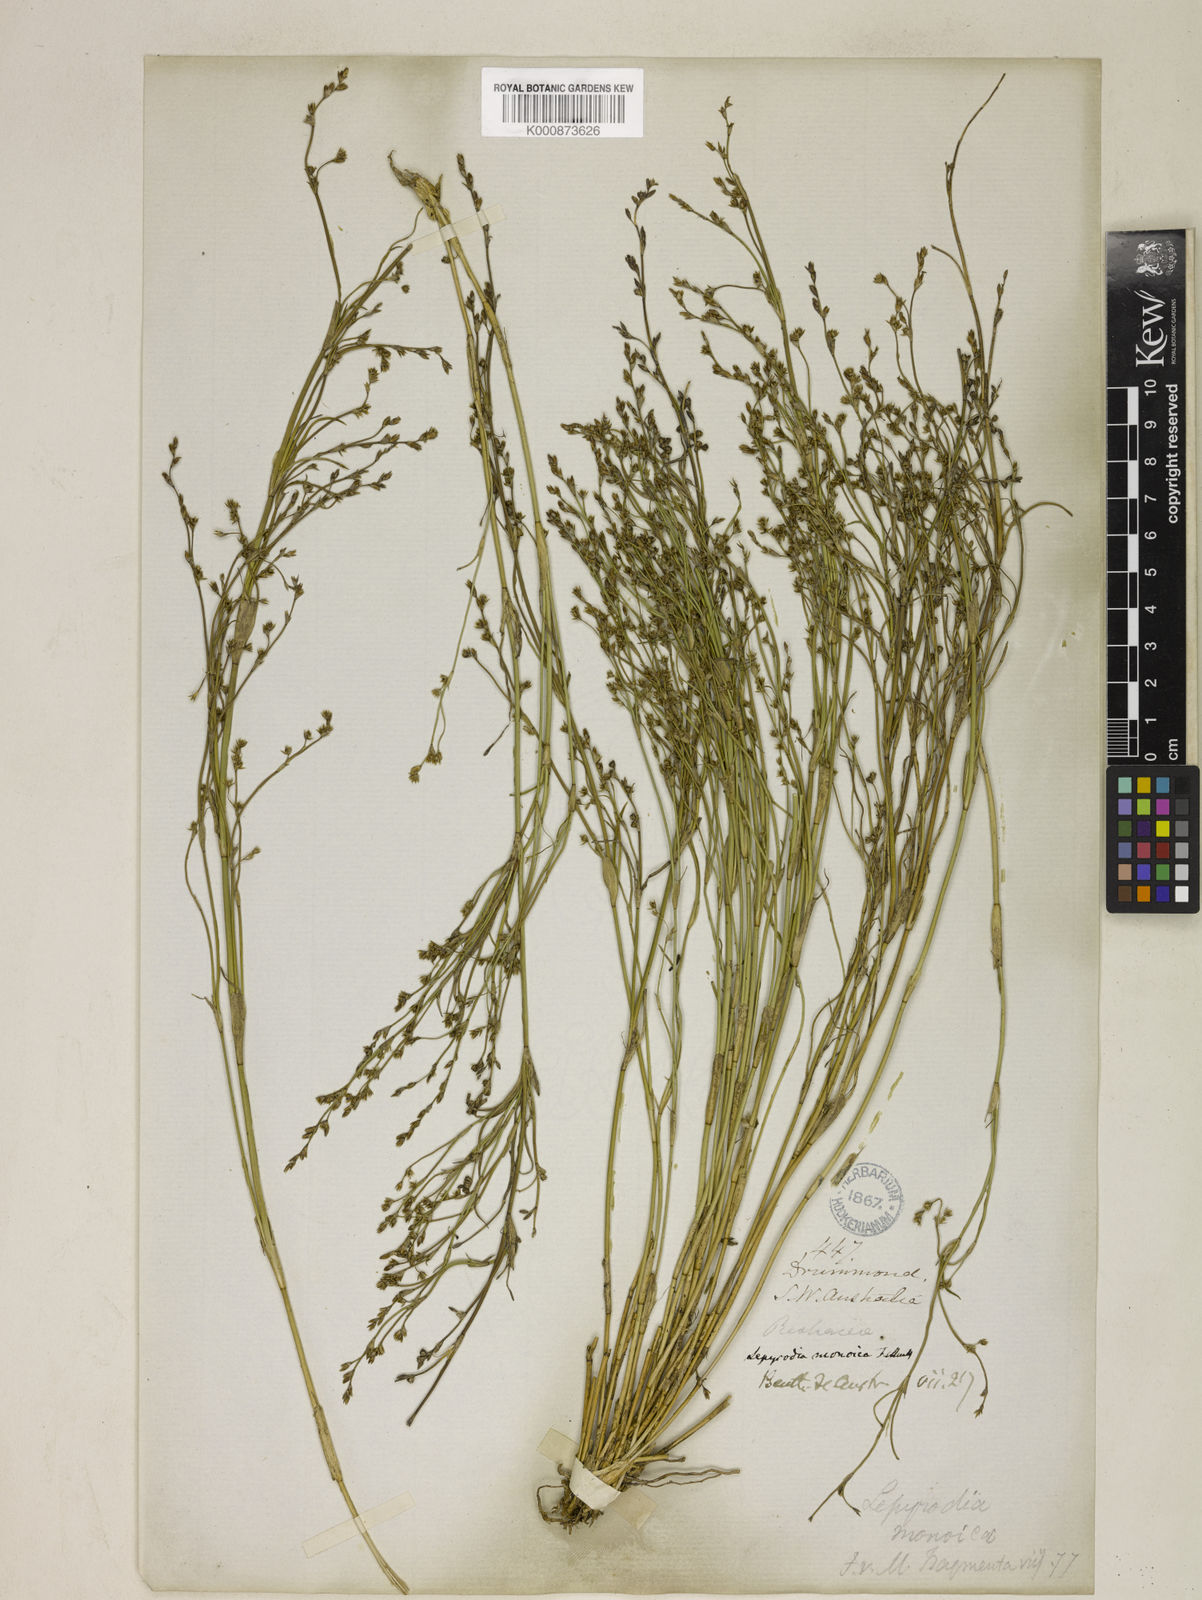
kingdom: Plantae
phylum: Tracheophyta
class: Liliopsida
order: Poales
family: Restionaceae
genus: Lepyrodia
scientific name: Lepyrodia monoica
